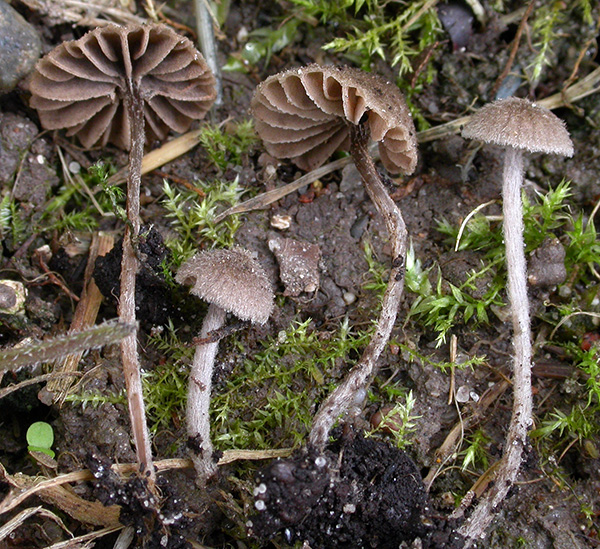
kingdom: Fungi
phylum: Basidiomycota
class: Agaricomycetes
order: Agaricales
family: Entolomataceae
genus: Entoloma
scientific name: Entoloma dysthaloides
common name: dyster rødblad
